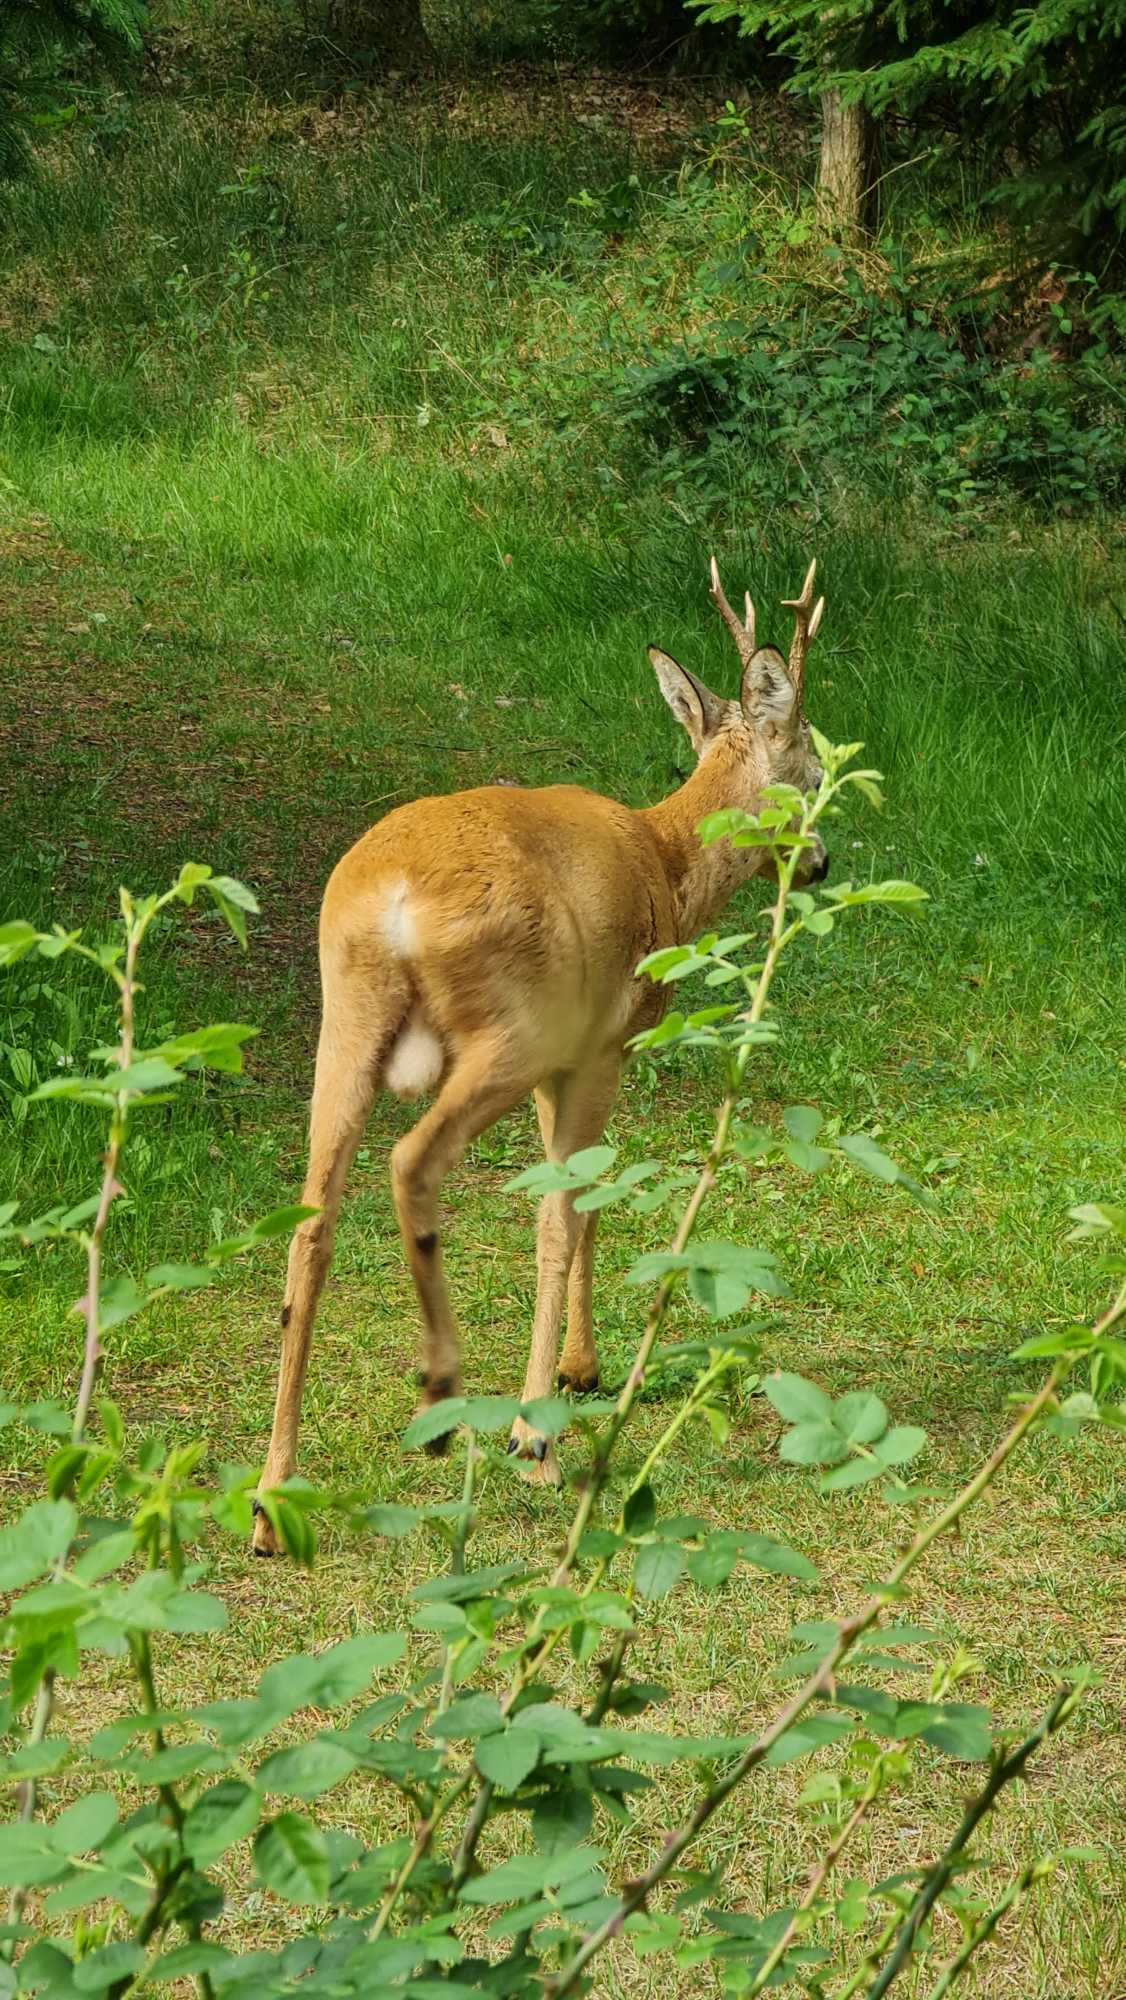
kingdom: Animalia
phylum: Chordata
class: Mammalia
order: Artiodactyla
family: Cervidae
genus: Capreolus
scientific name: Capreolus capreolus
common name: Rådyr
